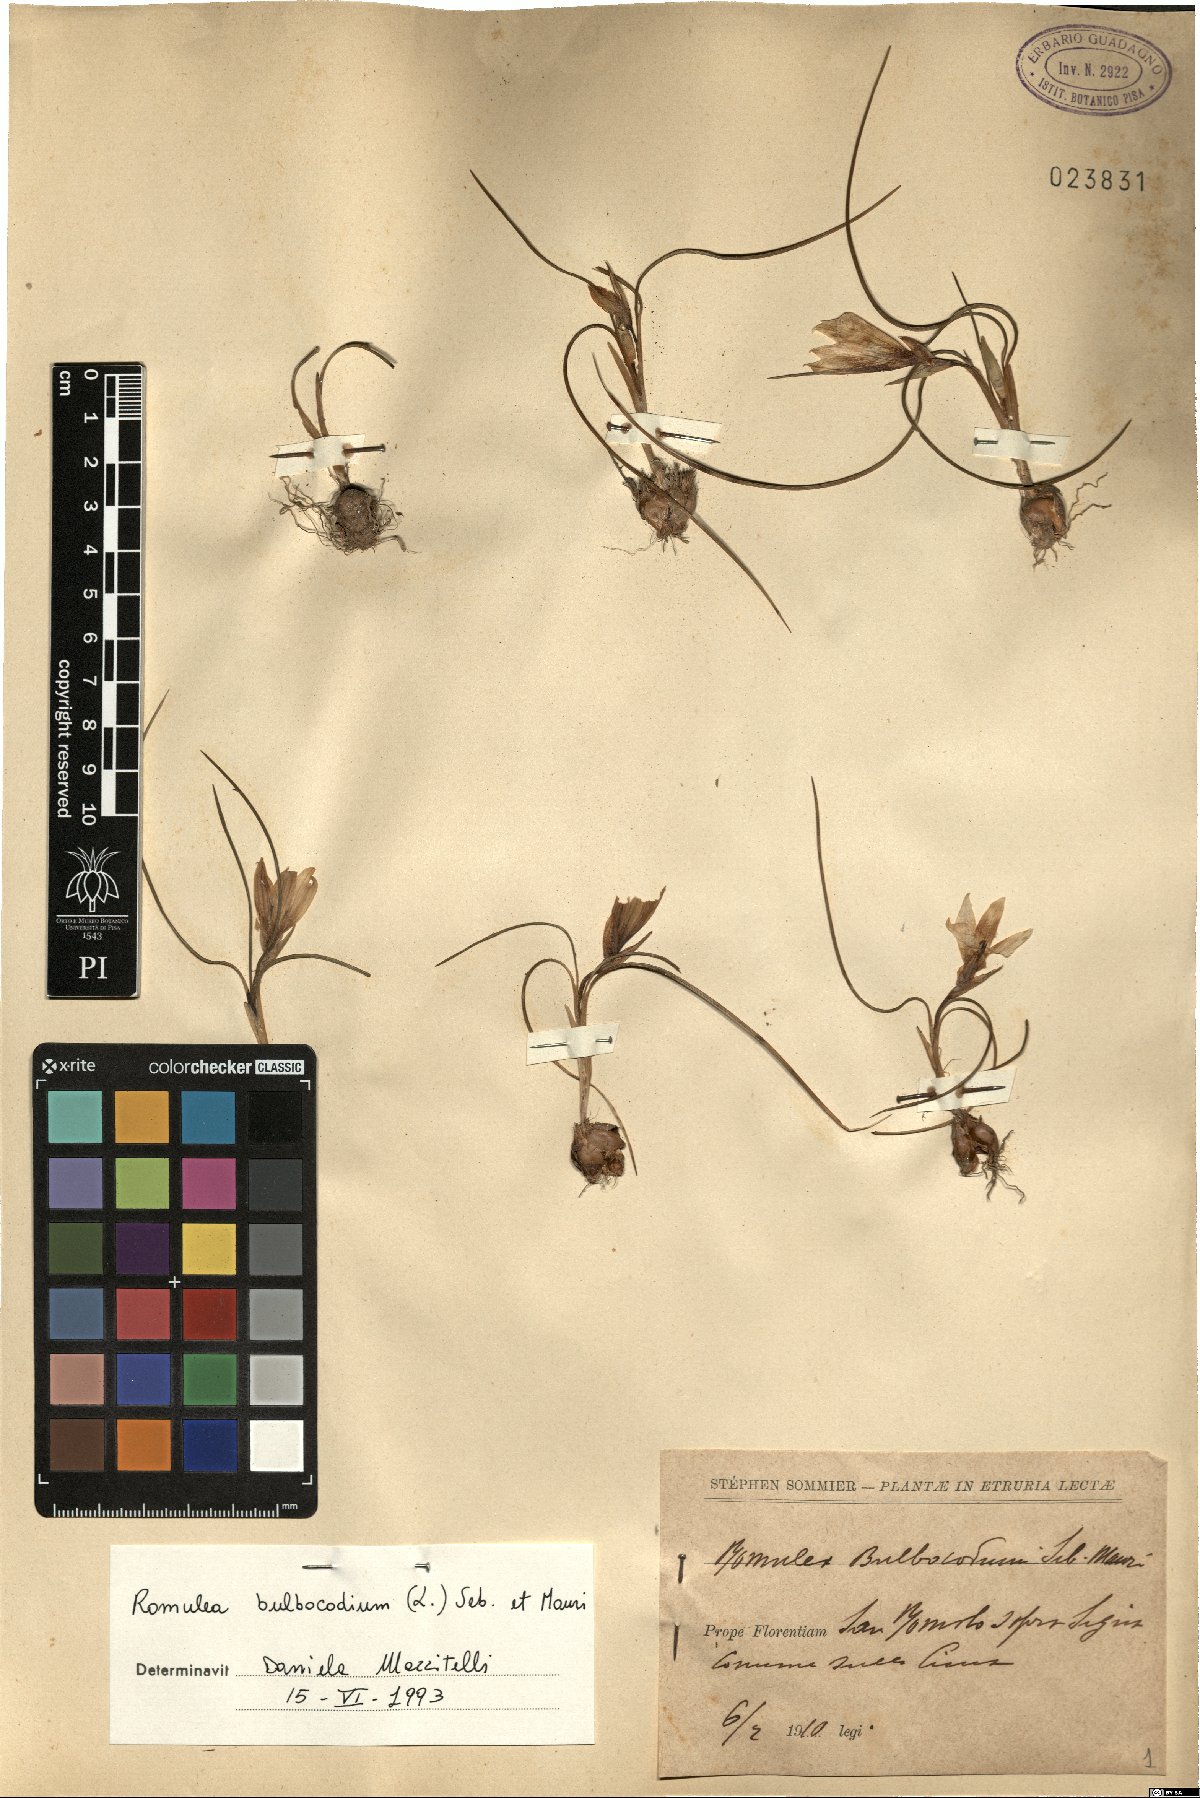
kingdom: Plantae
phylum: Tracheophyta
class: Liliopsida
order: Asparagales
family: Iridaceae
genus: Romulea
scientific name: Romulea bulbocodium
